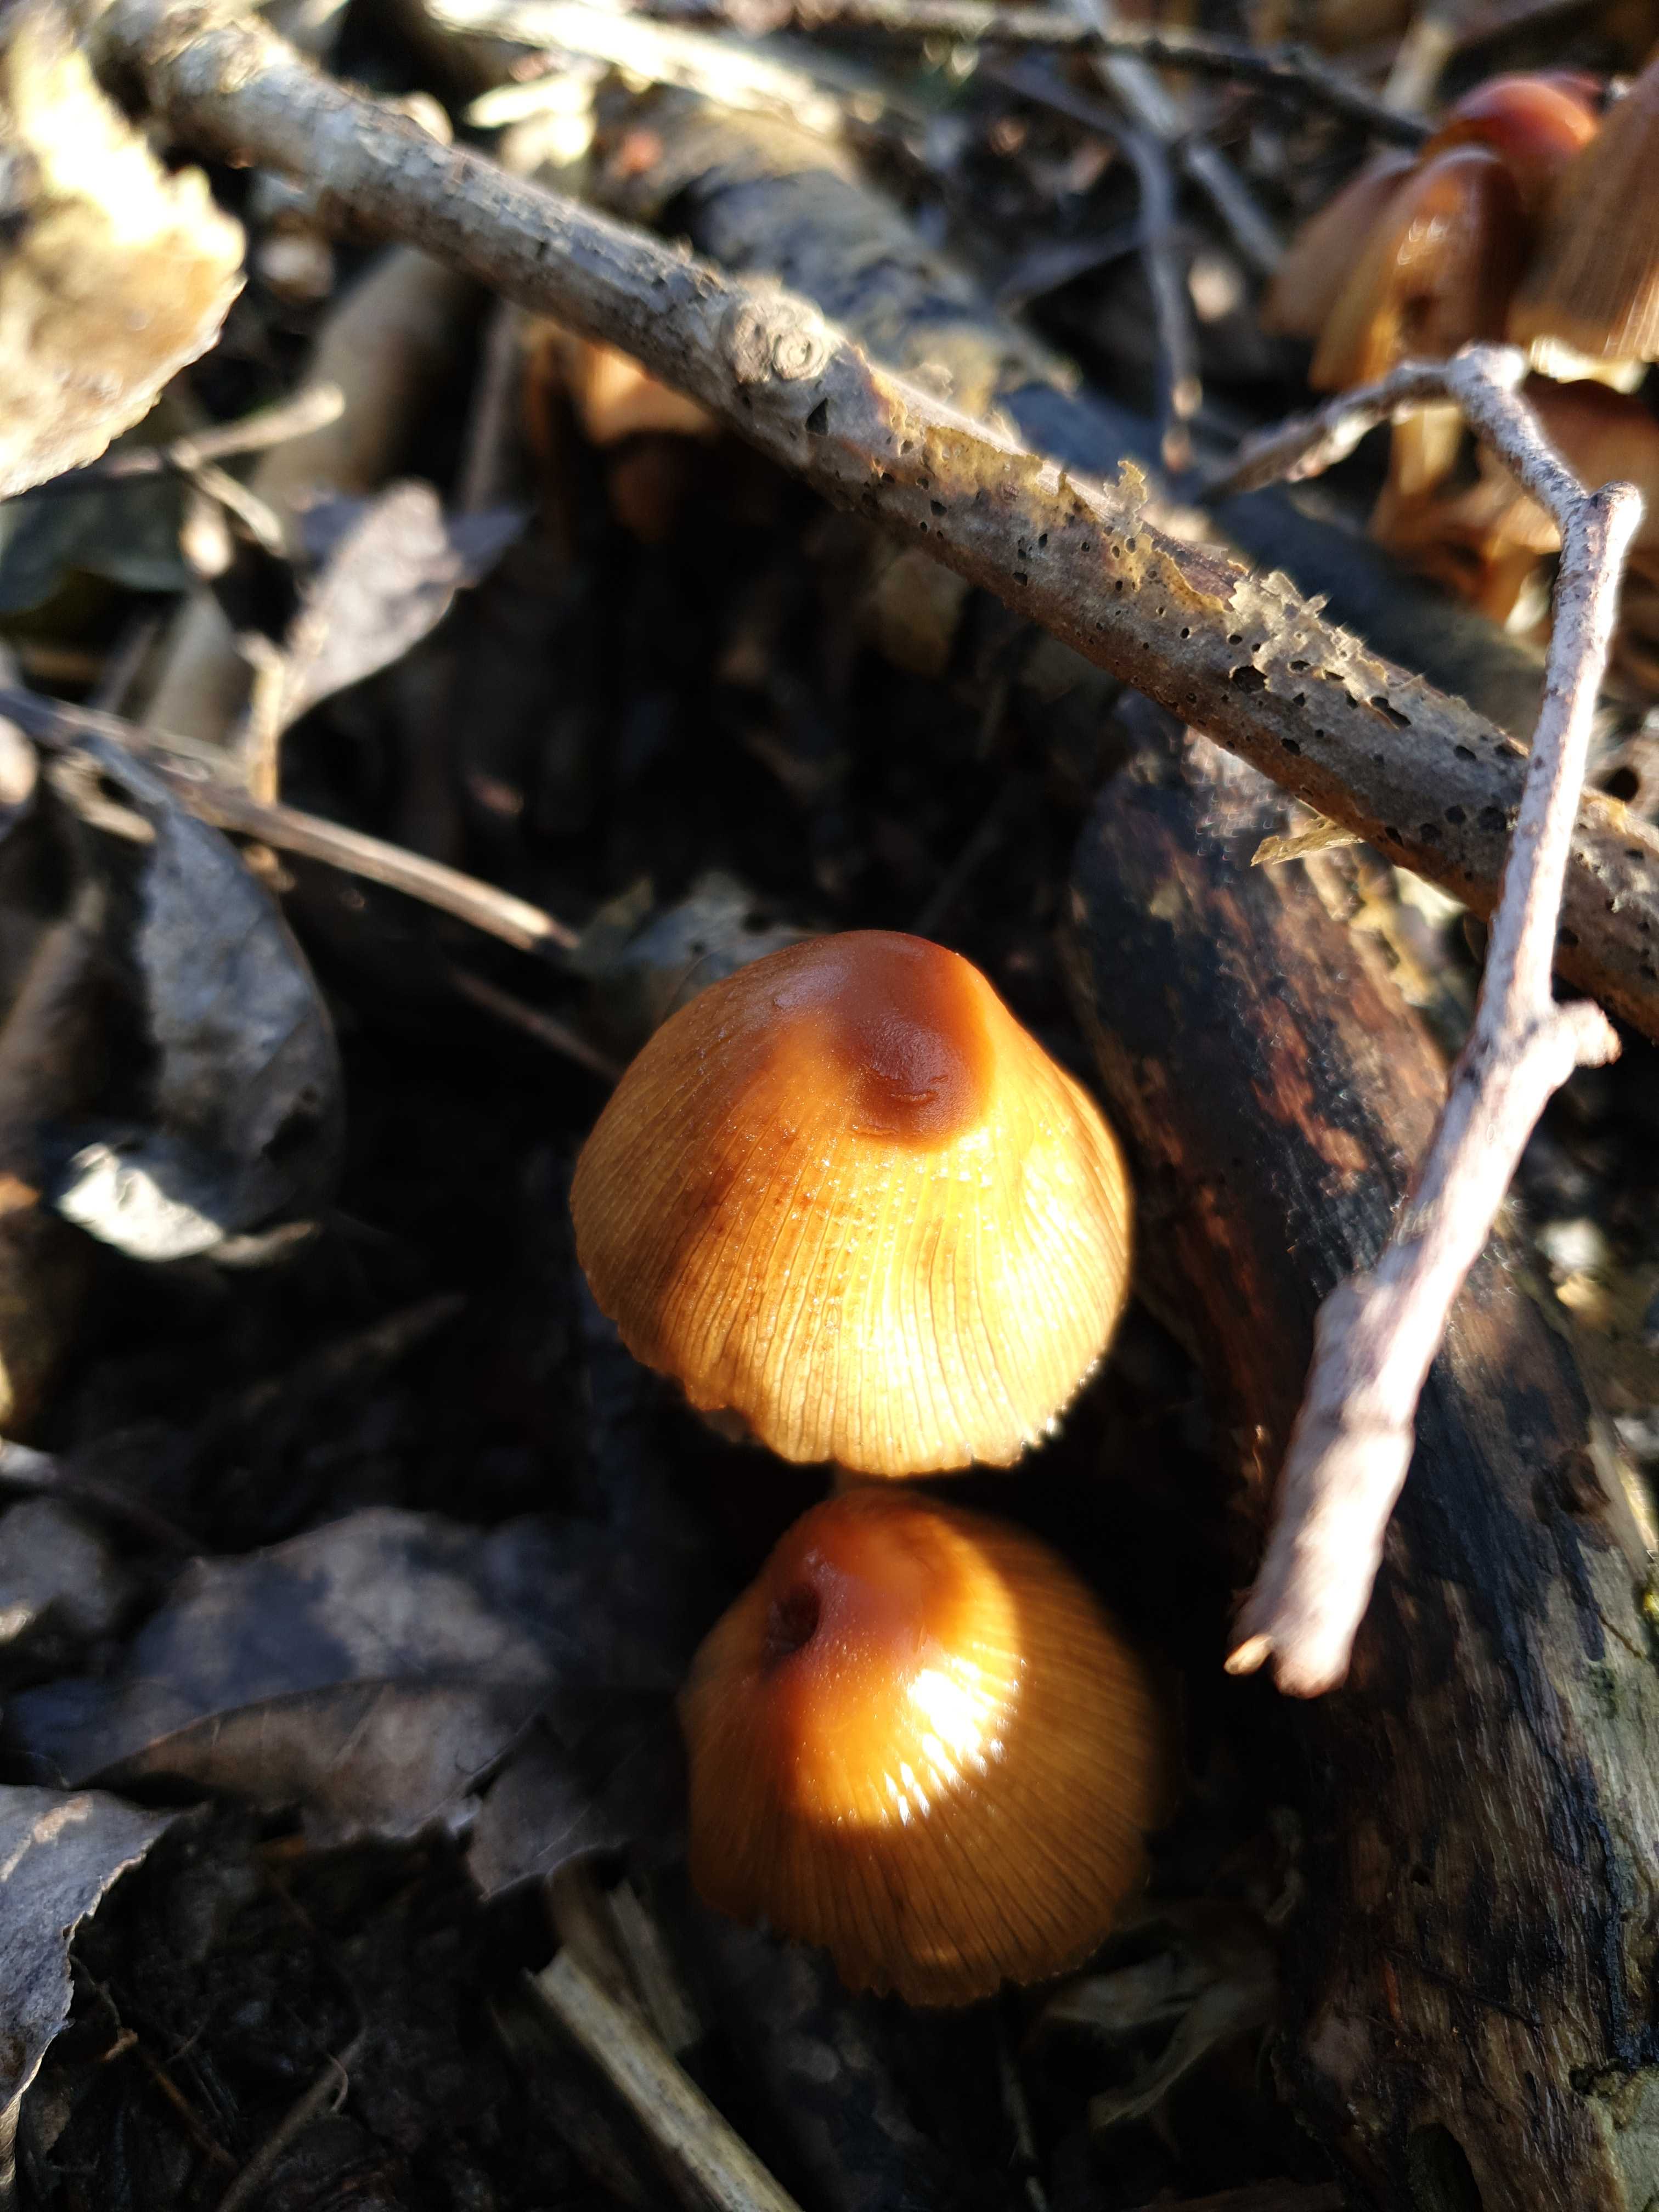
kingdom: Fungi
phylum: Basidiomycota
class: Agaricomycetes
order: Agaricales
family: Psathyrellaceae
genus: Coprinellus
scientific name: Coprinellus
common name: blækhat
